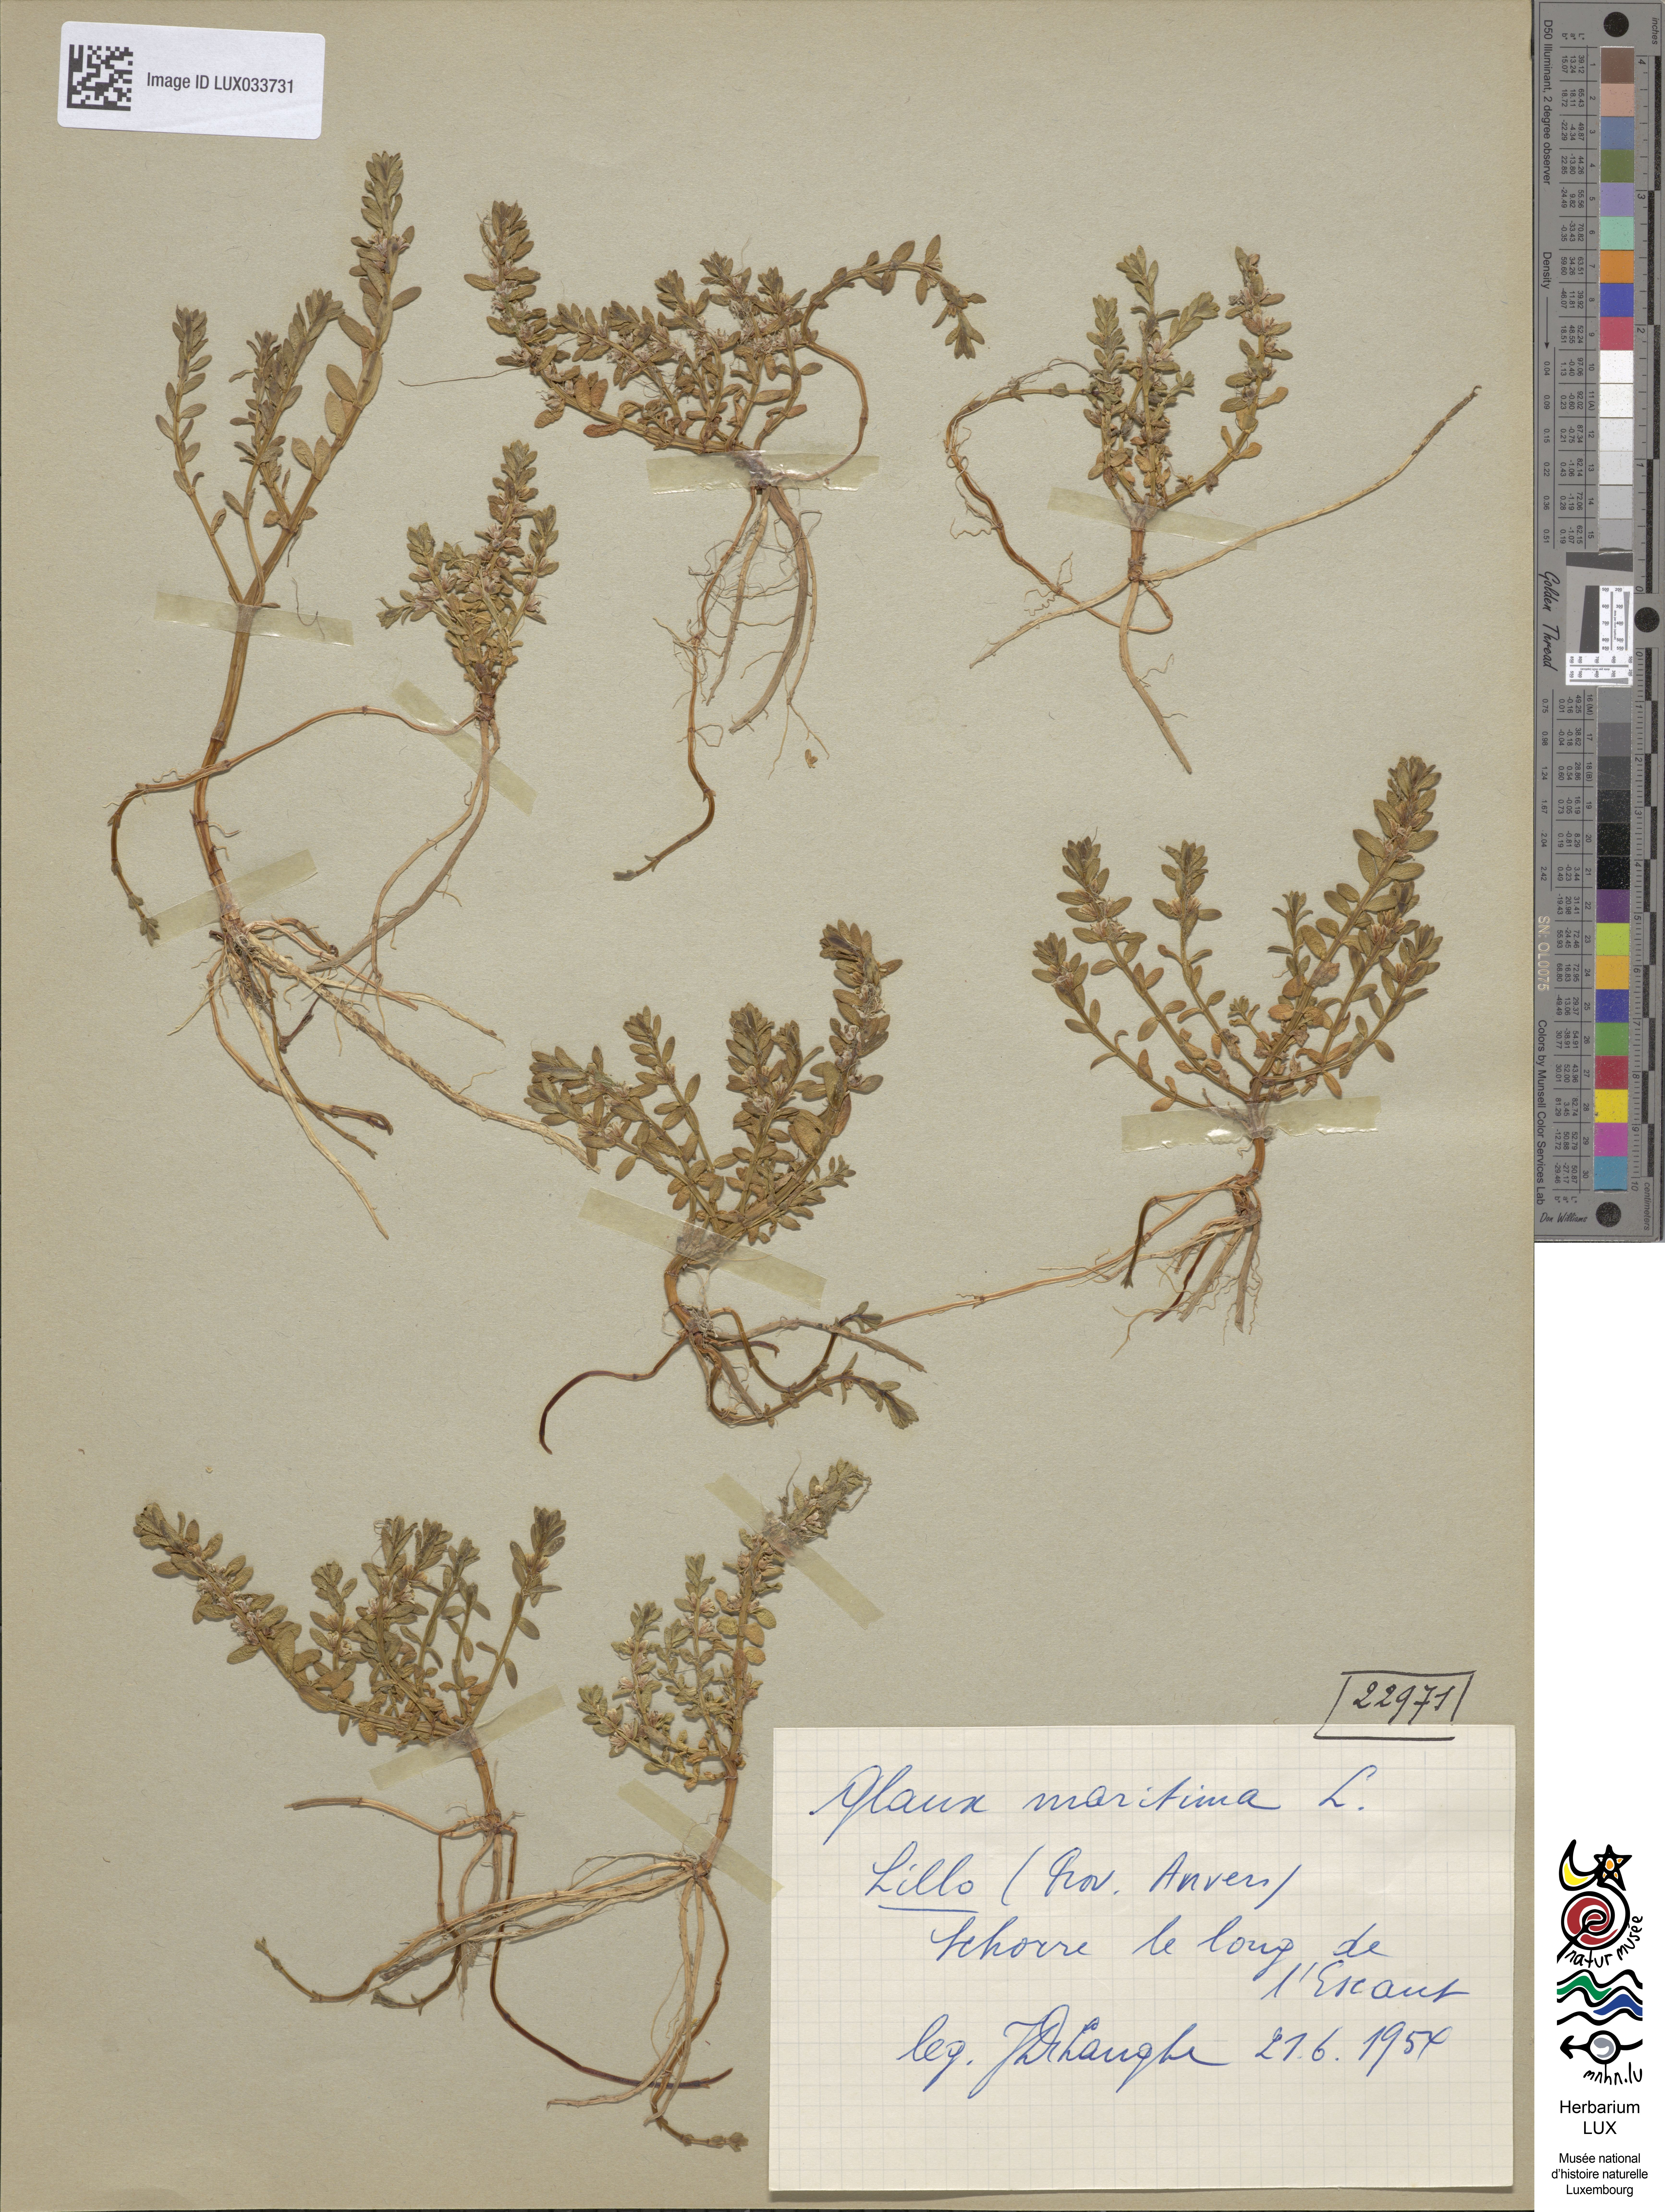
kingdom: Plantae
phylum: Tracheophyta
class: Magnoliopsida
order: Ericales
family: Primulaceae
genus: Lysimachia
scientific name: Lysimachia maritima
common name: Sea milkwort
